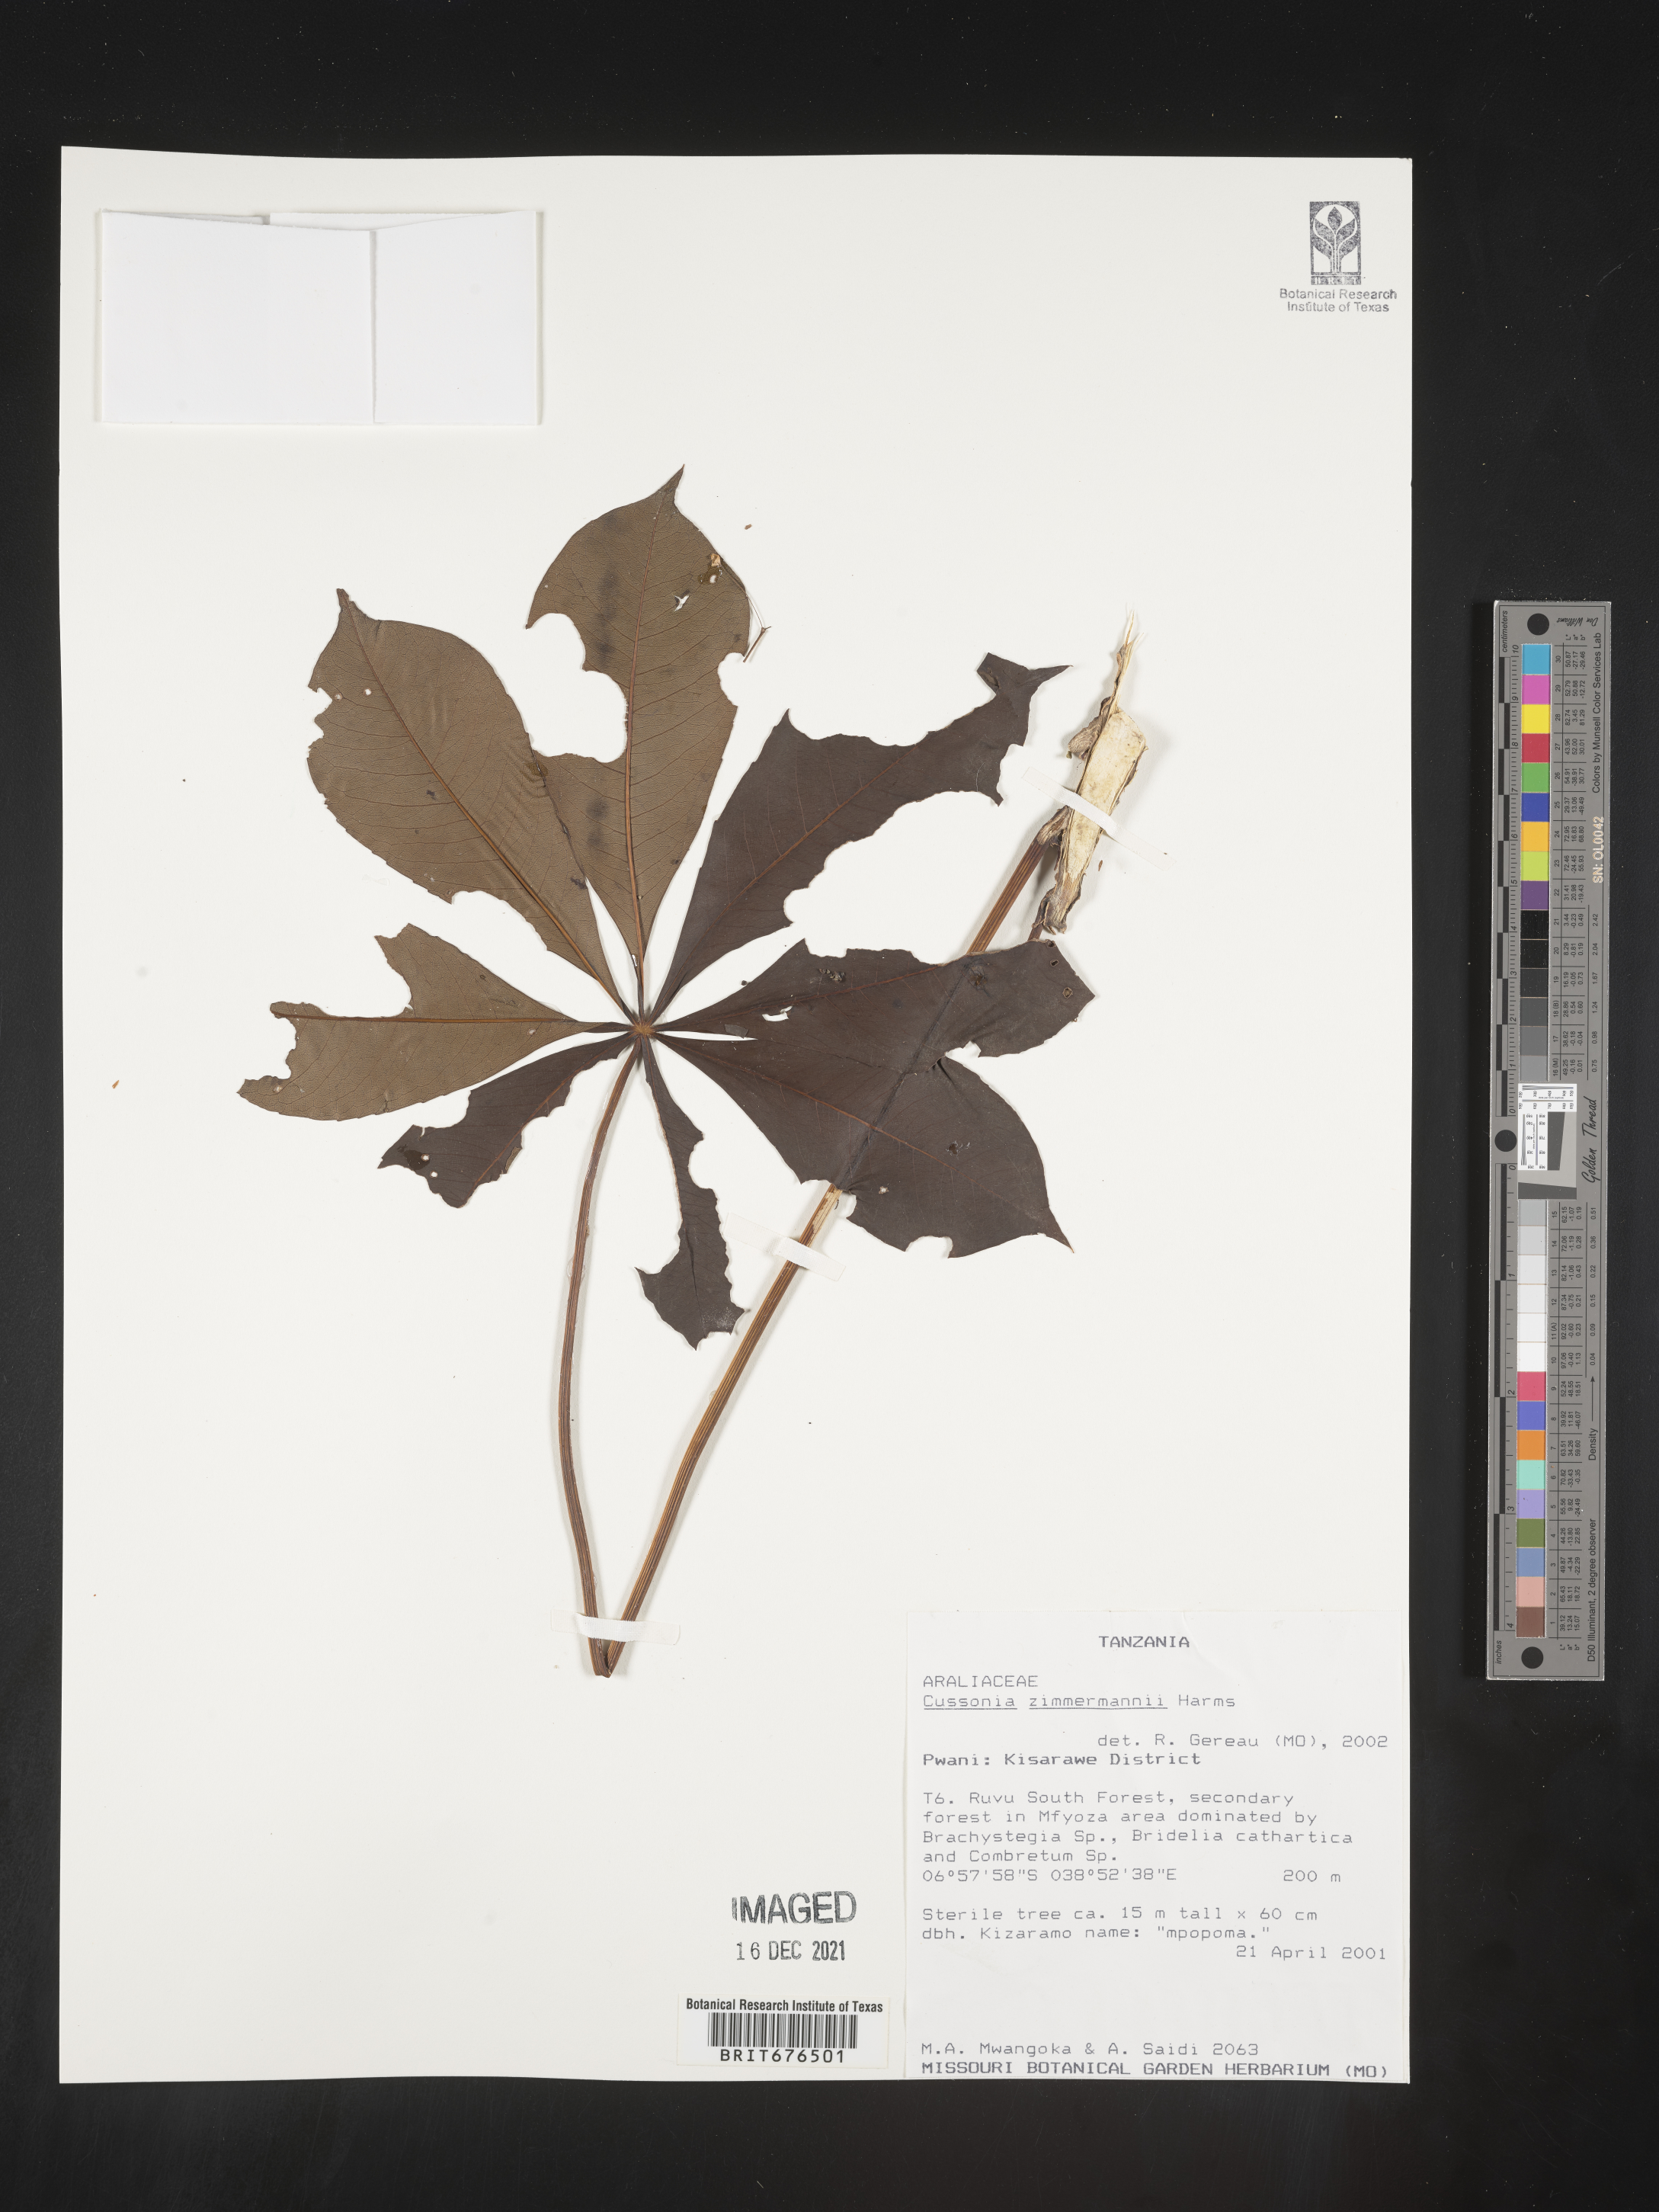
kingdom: Plantae
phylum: Tracheophyta
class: Magnoliopsida
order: Apiales
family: Araliaceae
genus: Cussonia
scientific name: Cussonia
